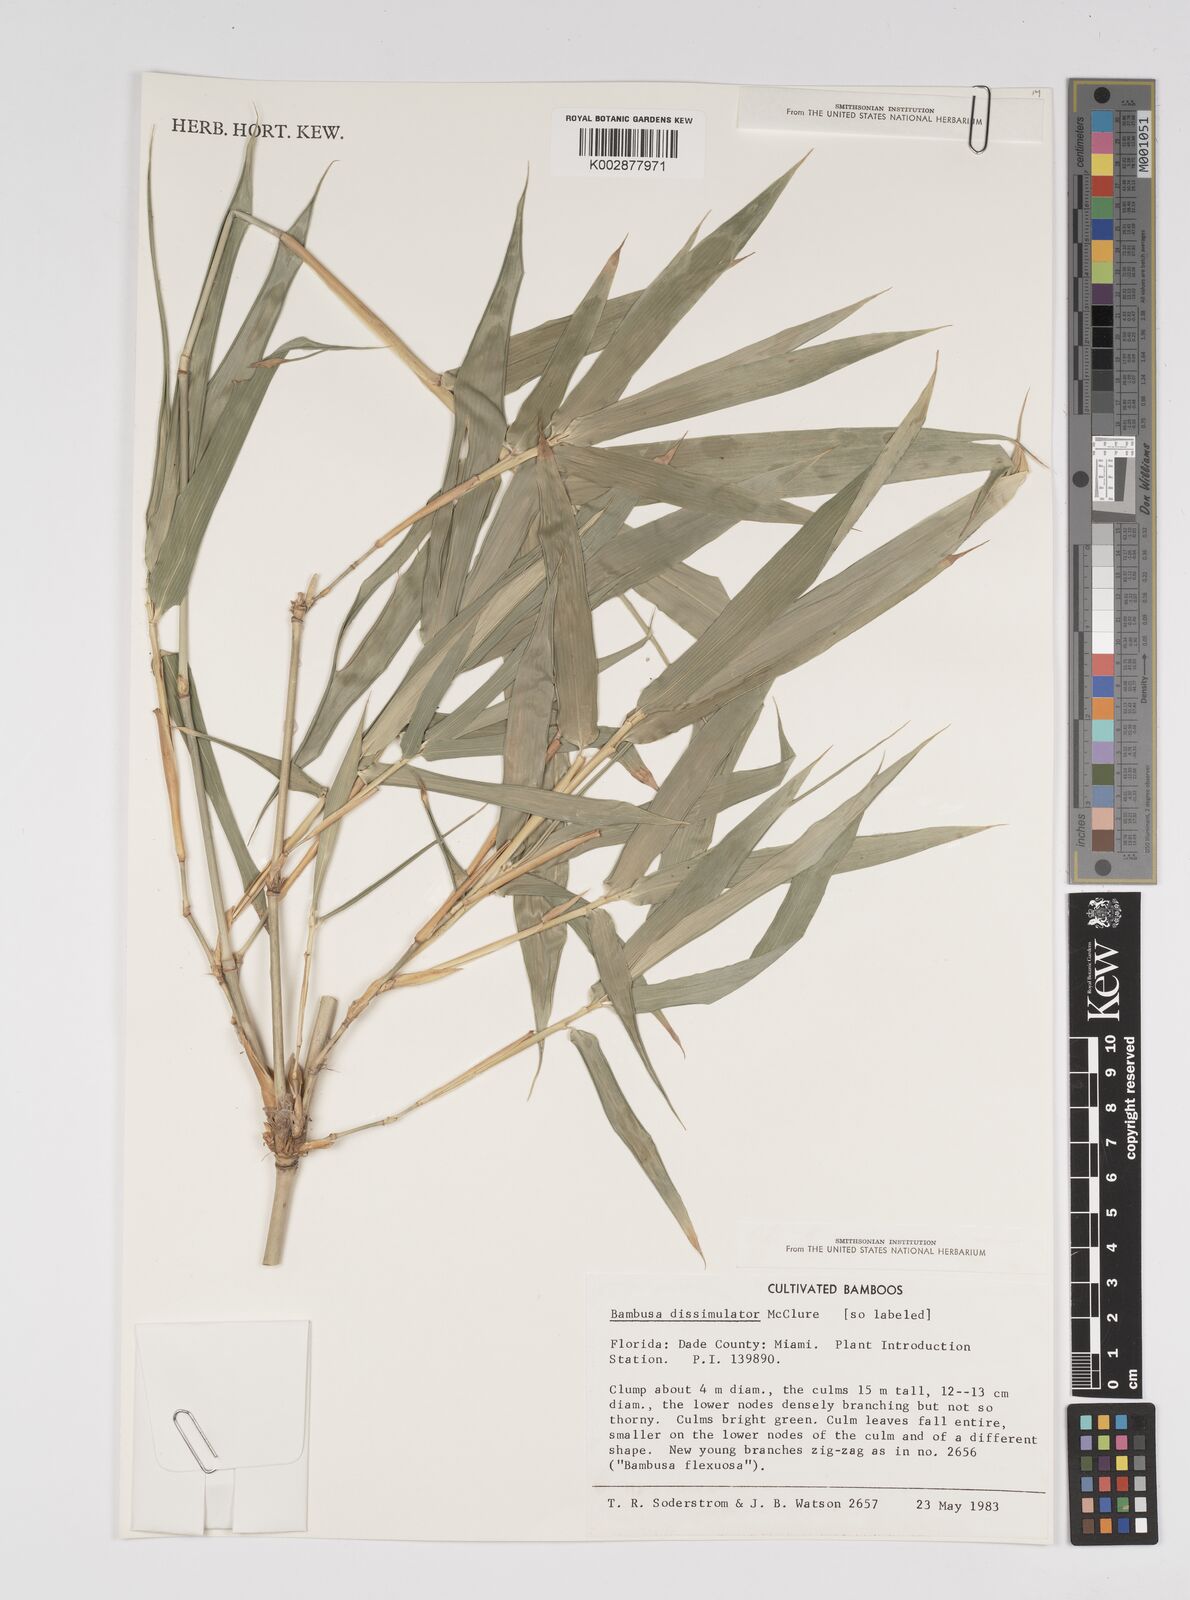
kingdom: Plantae
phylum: Tracheophyta
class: Liliopsida
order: Poales
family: Poaceae
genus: Bambusa
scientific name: Bambusa dissimulator
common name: Muddy bamboo
